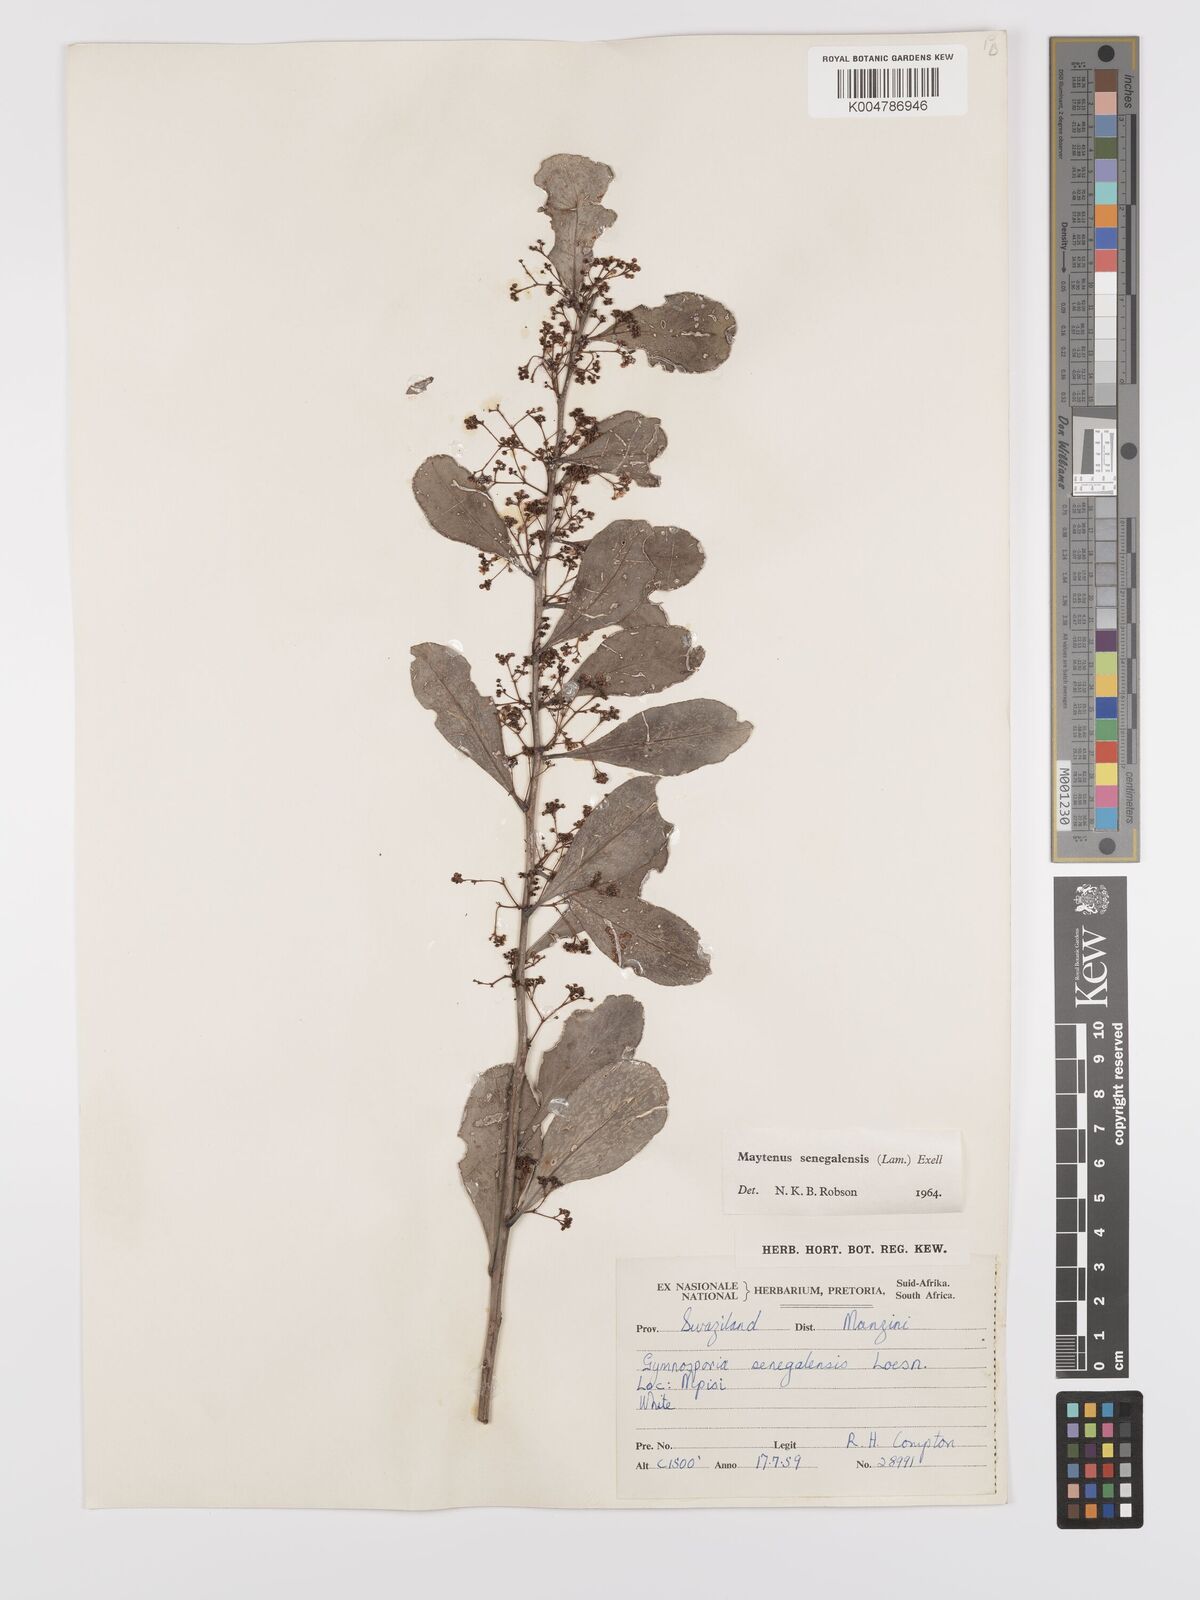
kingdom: Plantae
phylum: Tracheophyta
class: Magnoliopsida
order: Celastrales
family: Celastraceae
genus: Gymnosporia
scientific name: Gymnosporia senegalensis
